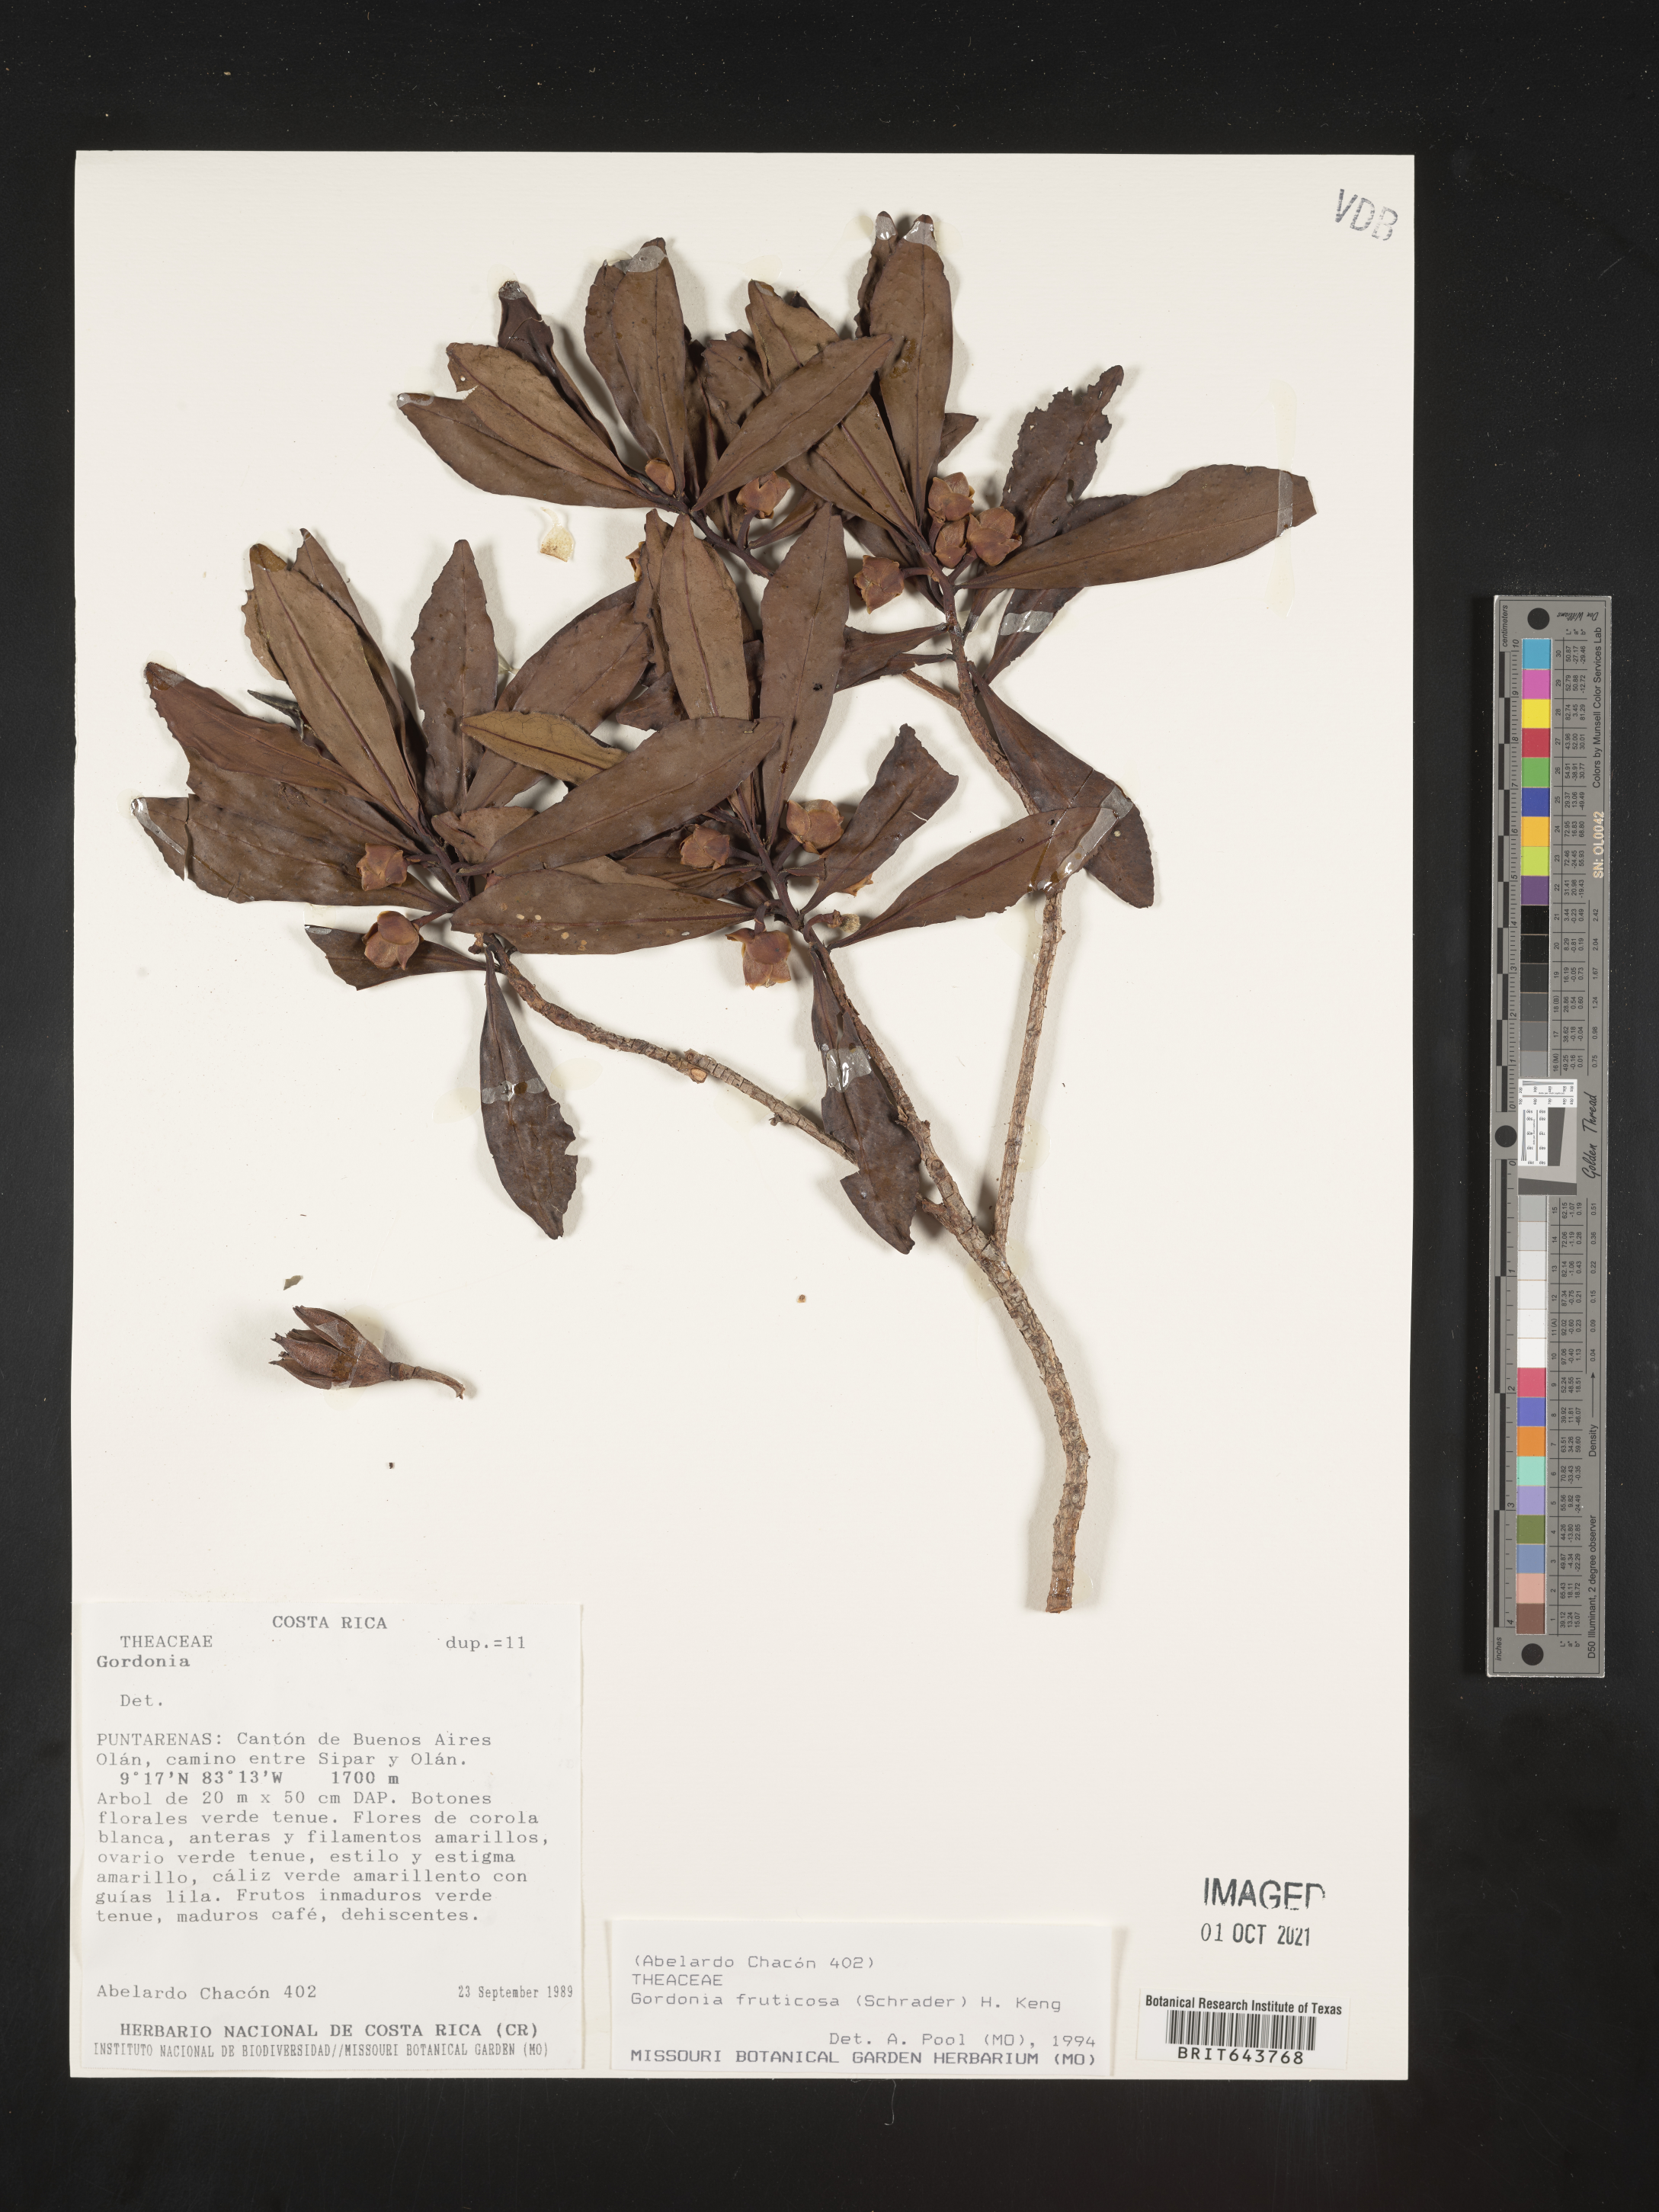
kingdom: Plantae
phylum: Tracheophyta
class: Magnoliopsida
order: Ericales
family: Theaceae
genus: Gordonia
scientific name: Gordonia
